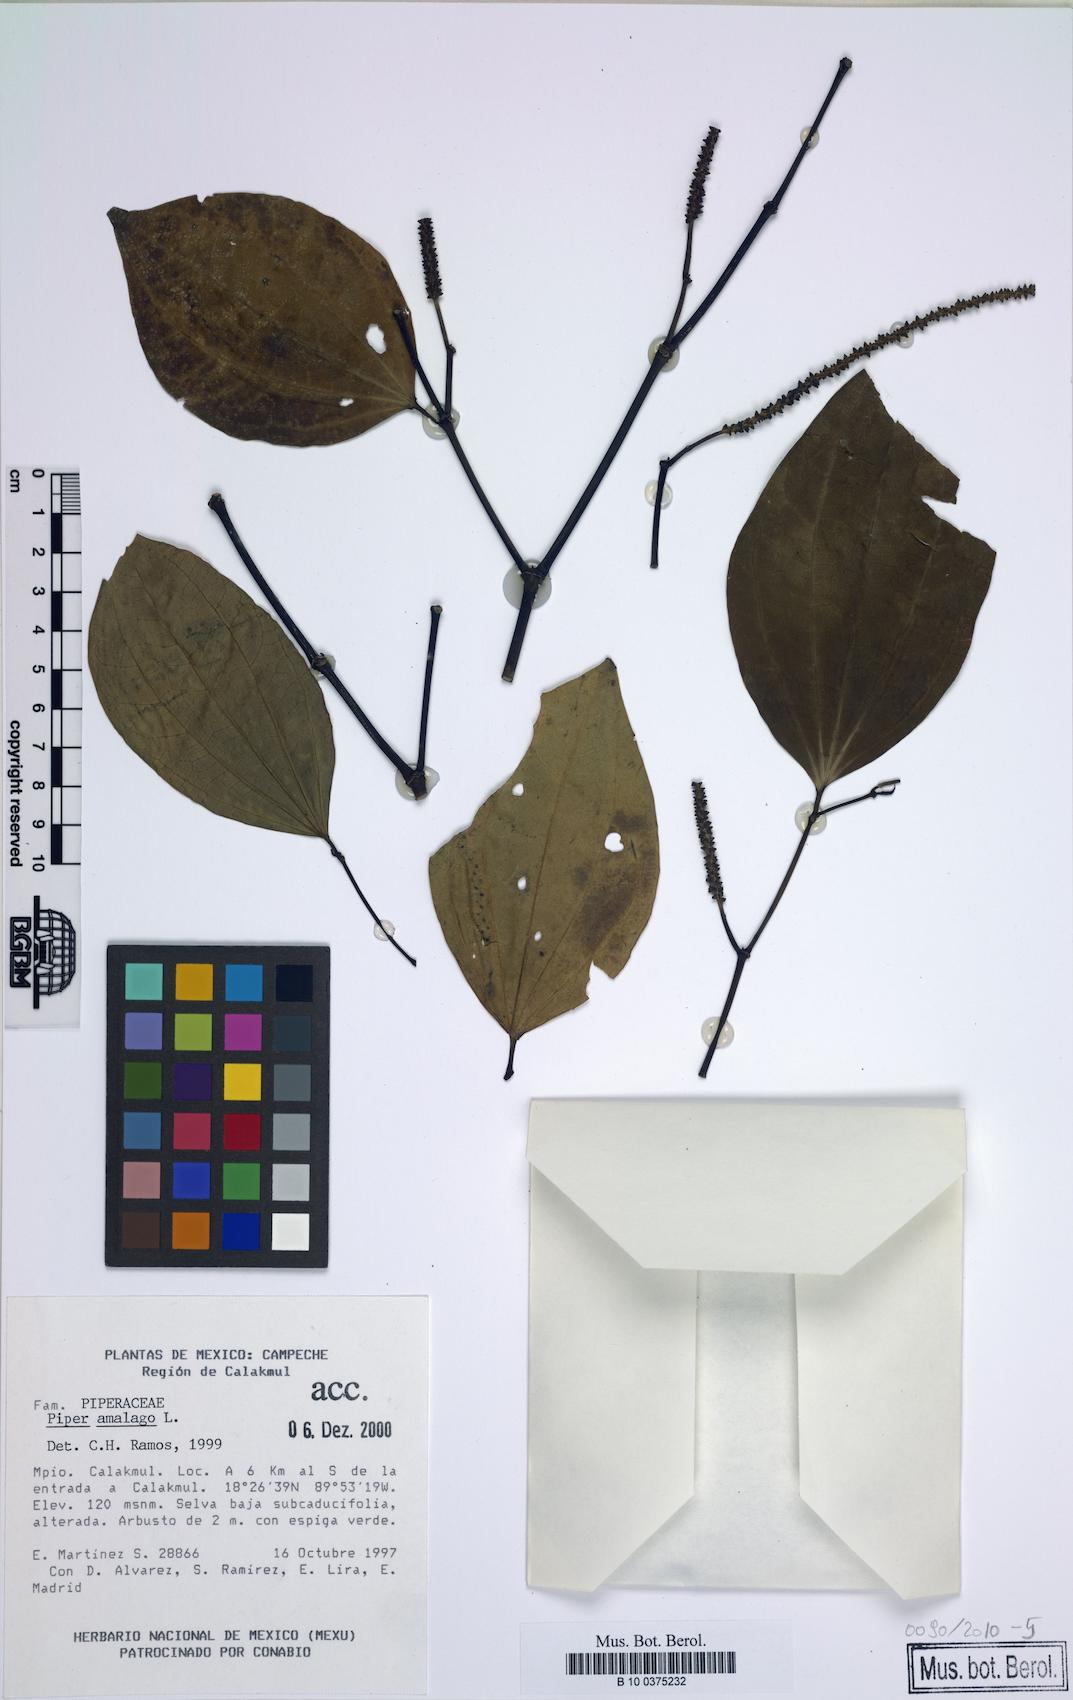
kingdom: Plantae
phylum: Tracheophyta
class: Magnoliopsida
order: Piperales
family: Piperaceae
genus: Piper
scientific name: Piper amalago
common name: Pepper-elder
